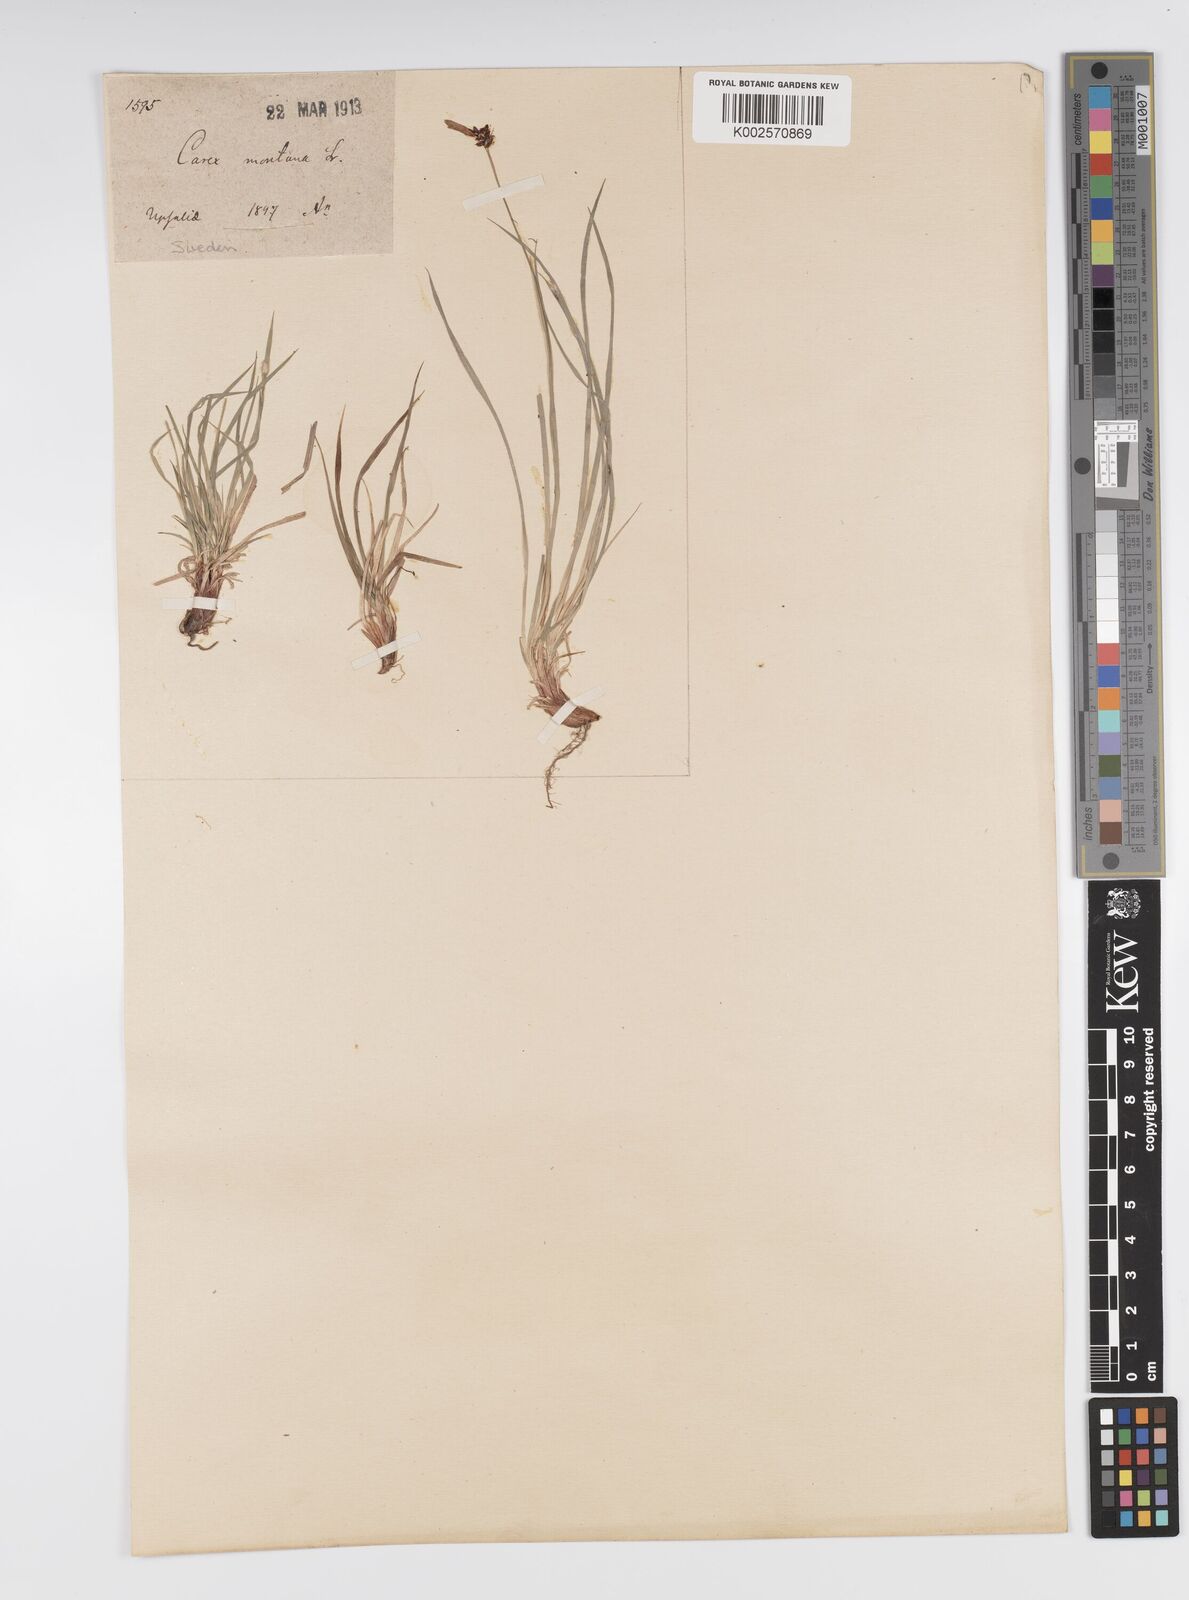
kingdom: Plantae
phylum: Tracheophyta
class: Liliopsida
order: Poales
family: Cyperaceae
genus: Carex
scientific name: Carex montana
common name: Soft-leaved sedge
